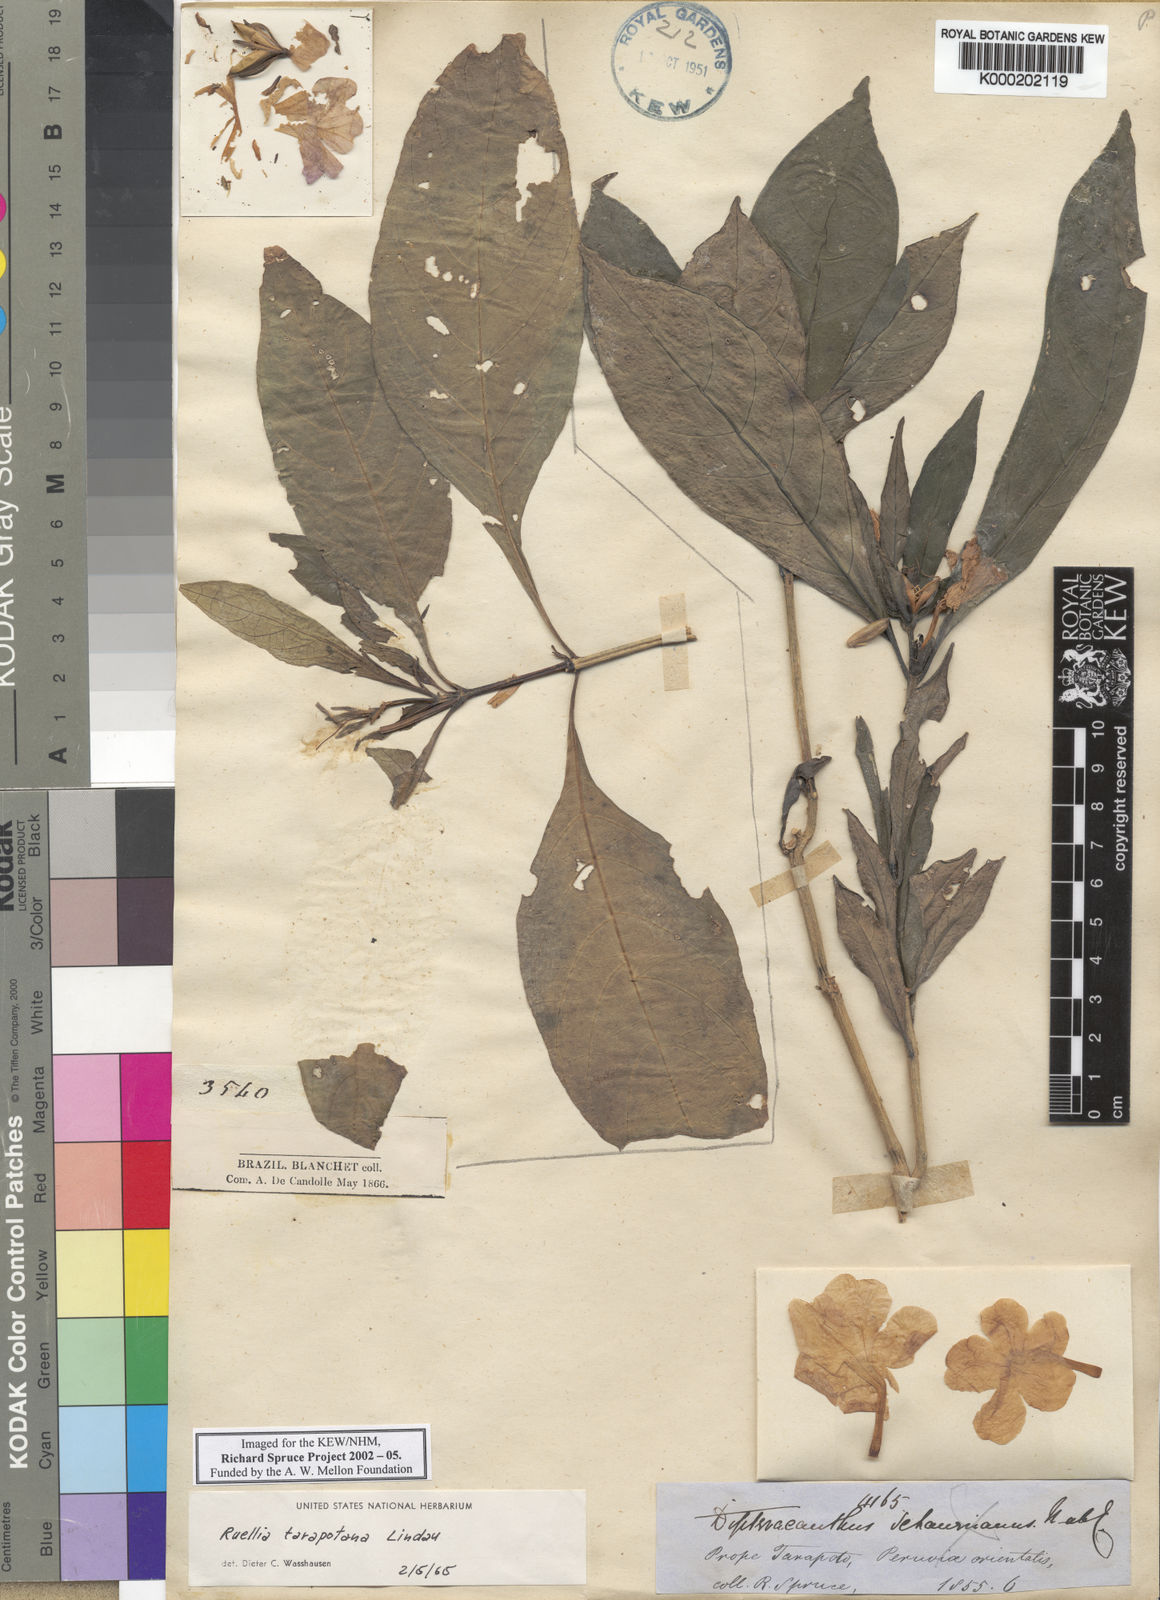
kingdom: Plantae
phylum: Tracheophyta
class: Magnoliopsida
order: Lamiales
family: Acanthaceae
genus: Ruellia
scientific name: Ruellia tarapotana
